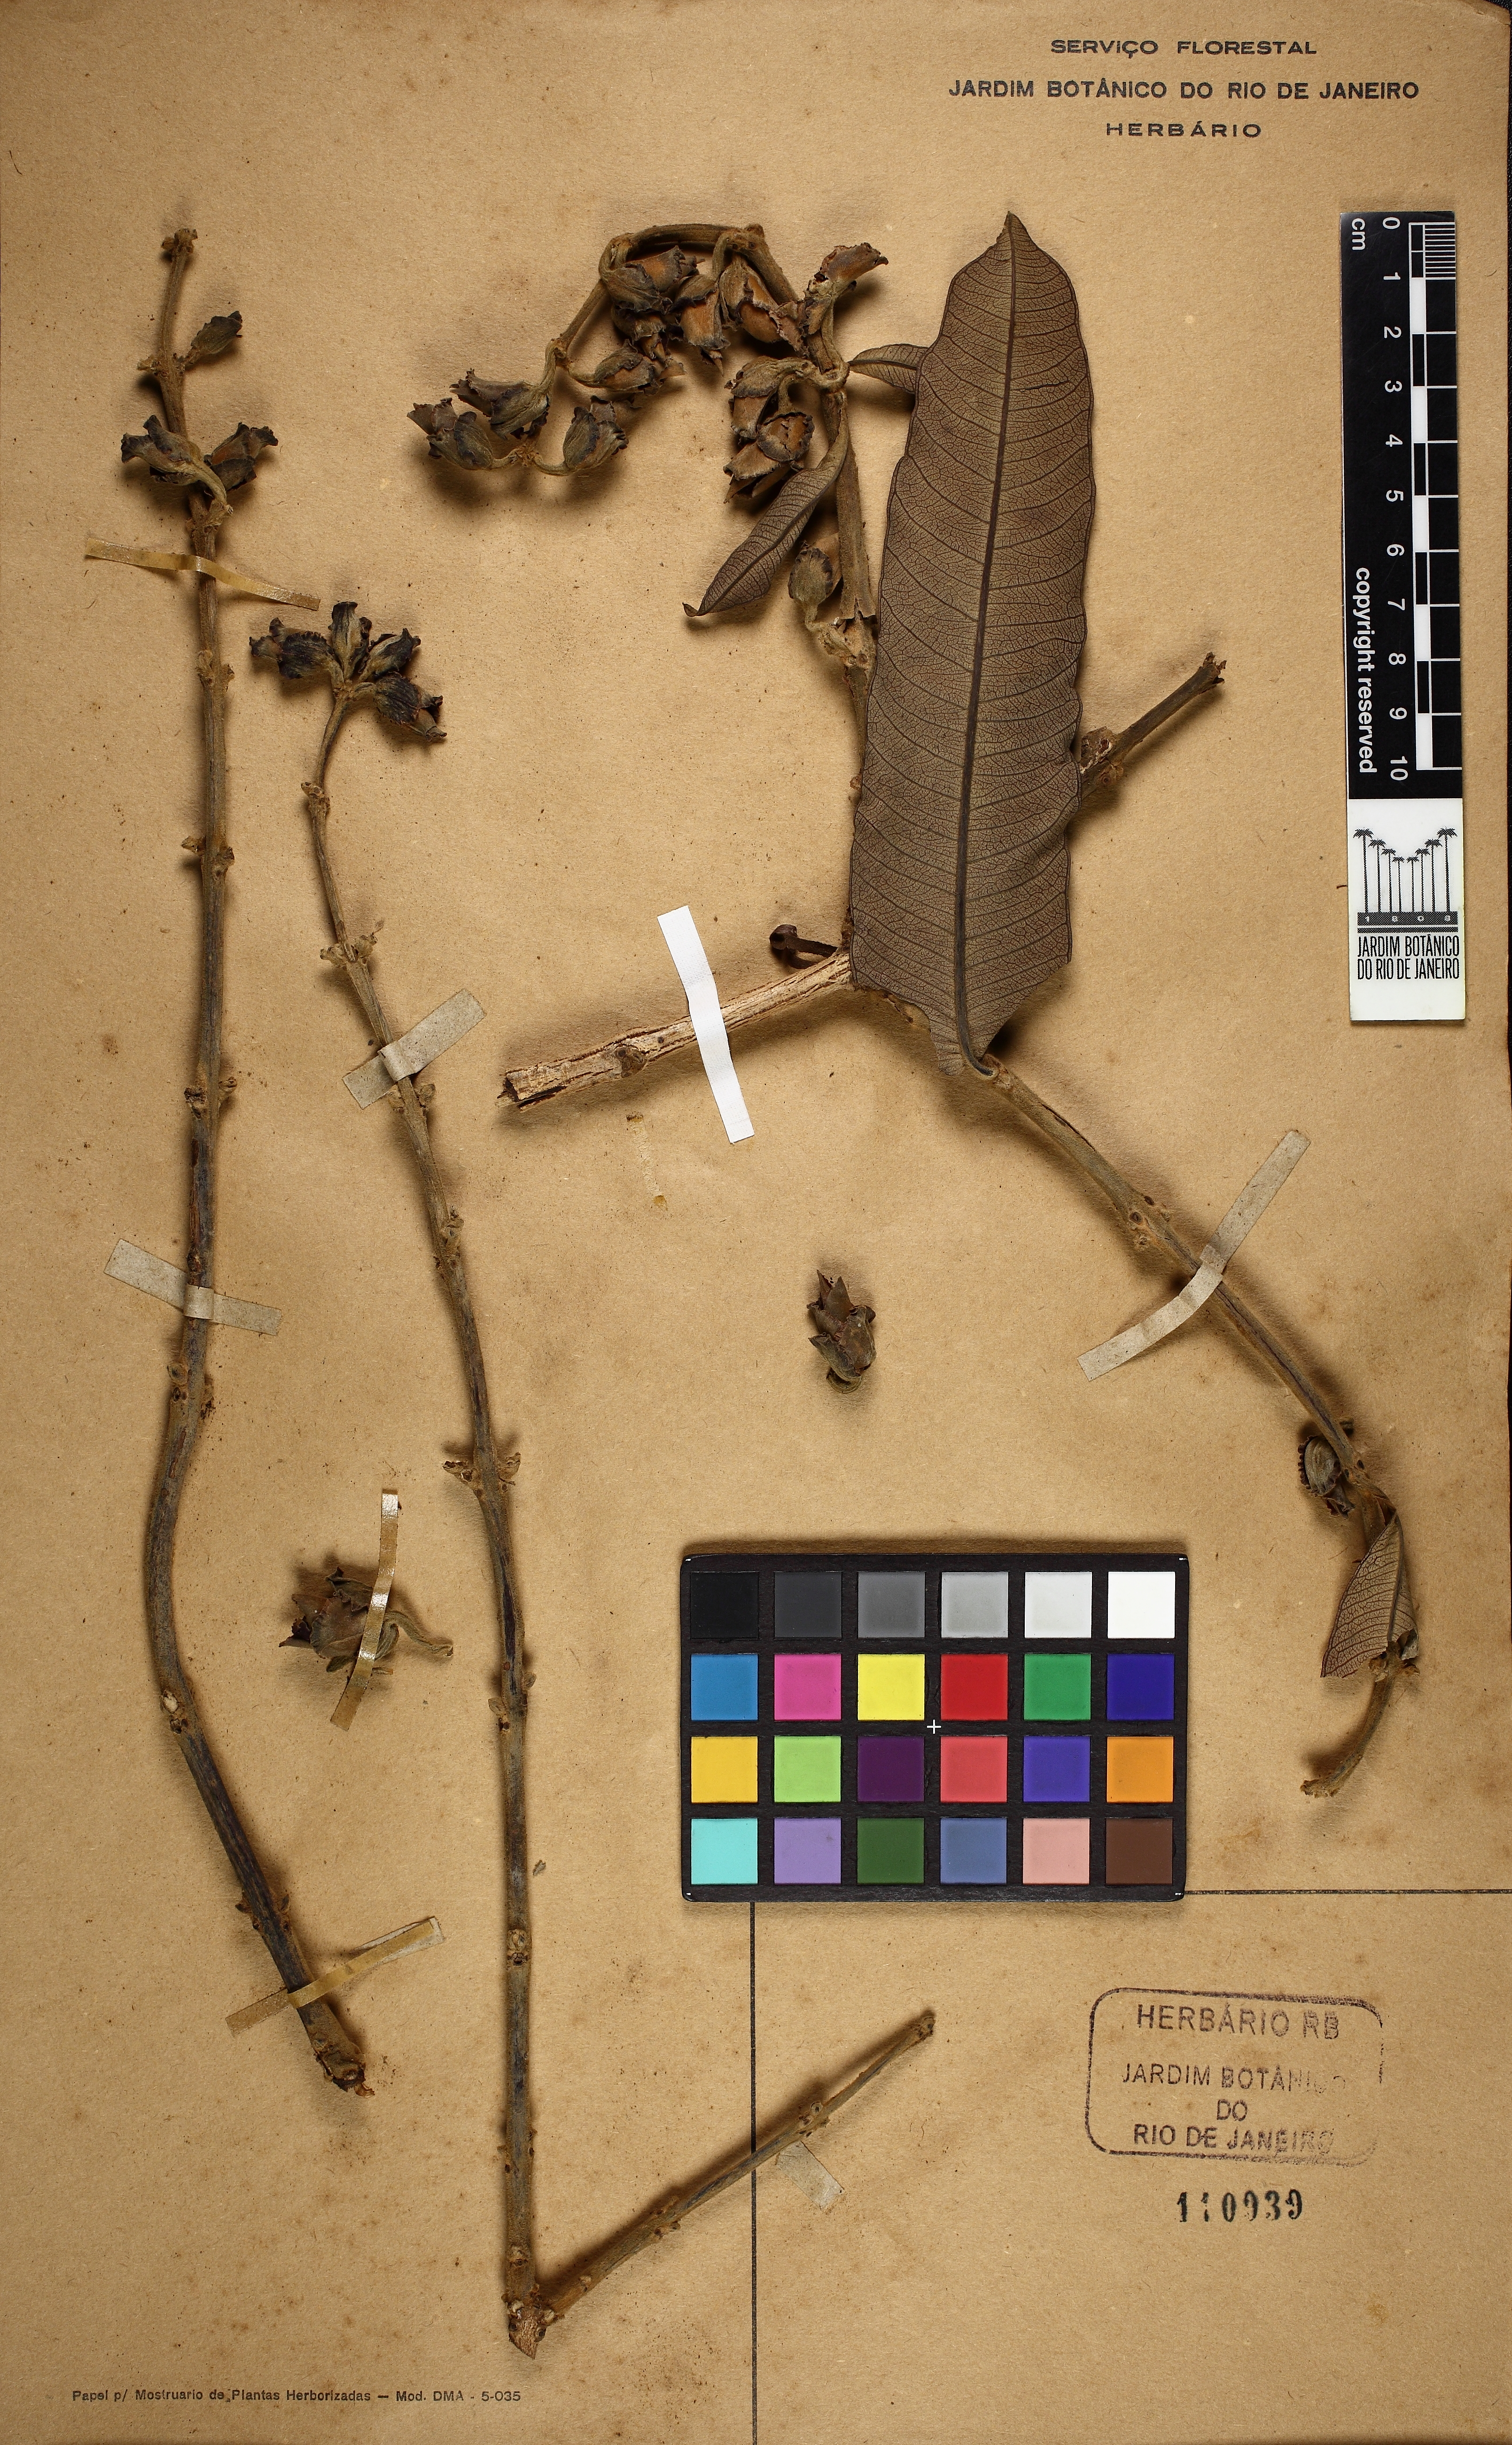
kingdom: Plantae
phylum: Tracheophyta
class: Magnoliopsida
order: Myrtales
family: Vochysiaceae
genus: Qualea
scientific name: Qualea grandiflora
